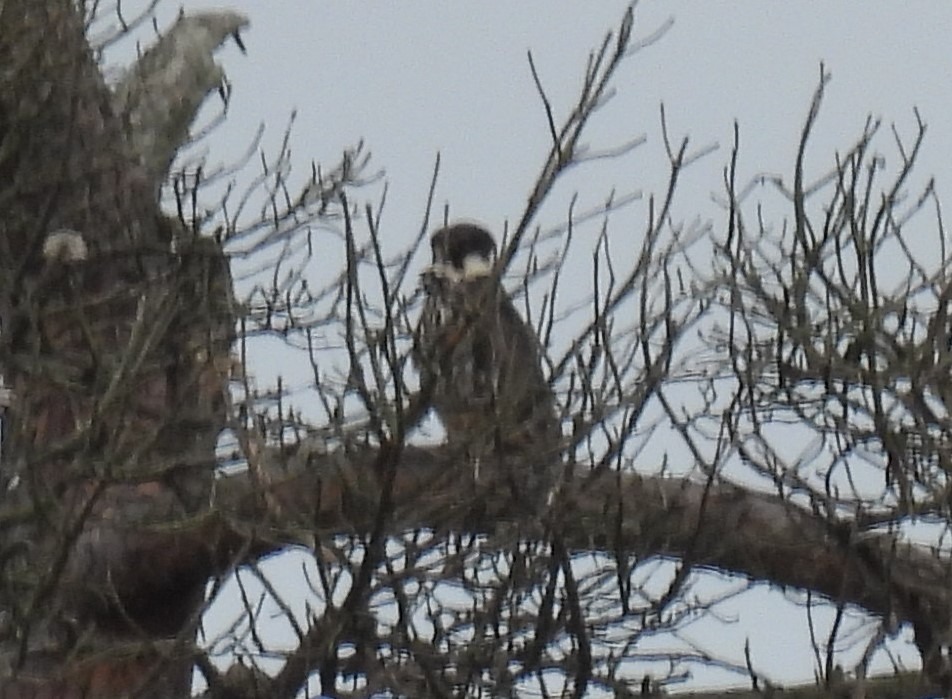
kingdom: Animalia
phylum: Chordata
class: Aves
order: Falconiformes
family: Falconidae
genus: Falco
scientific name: Falco subbuteo
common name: Lærkefalk
